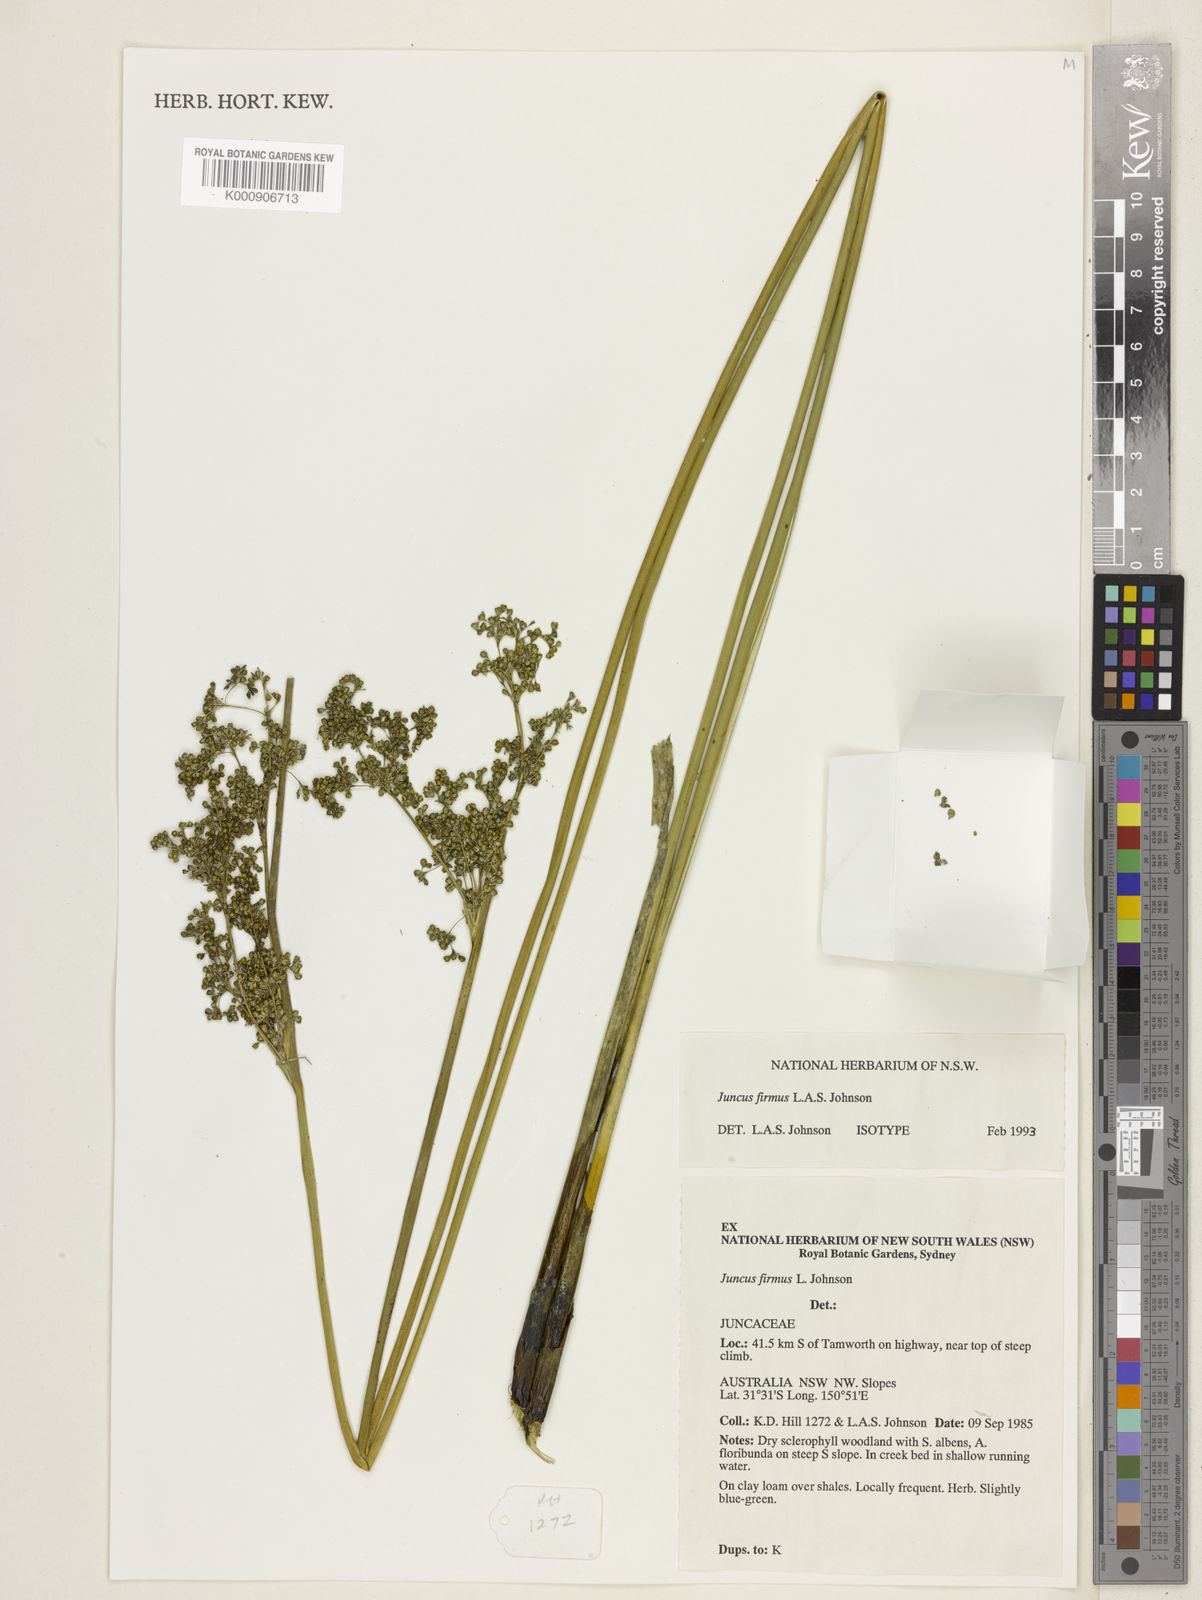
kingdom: Plantae
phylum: Tracheophyta
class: Liliopsida
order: Poales
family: Juncaceae
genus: Juncus
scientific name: Juncus firmus
